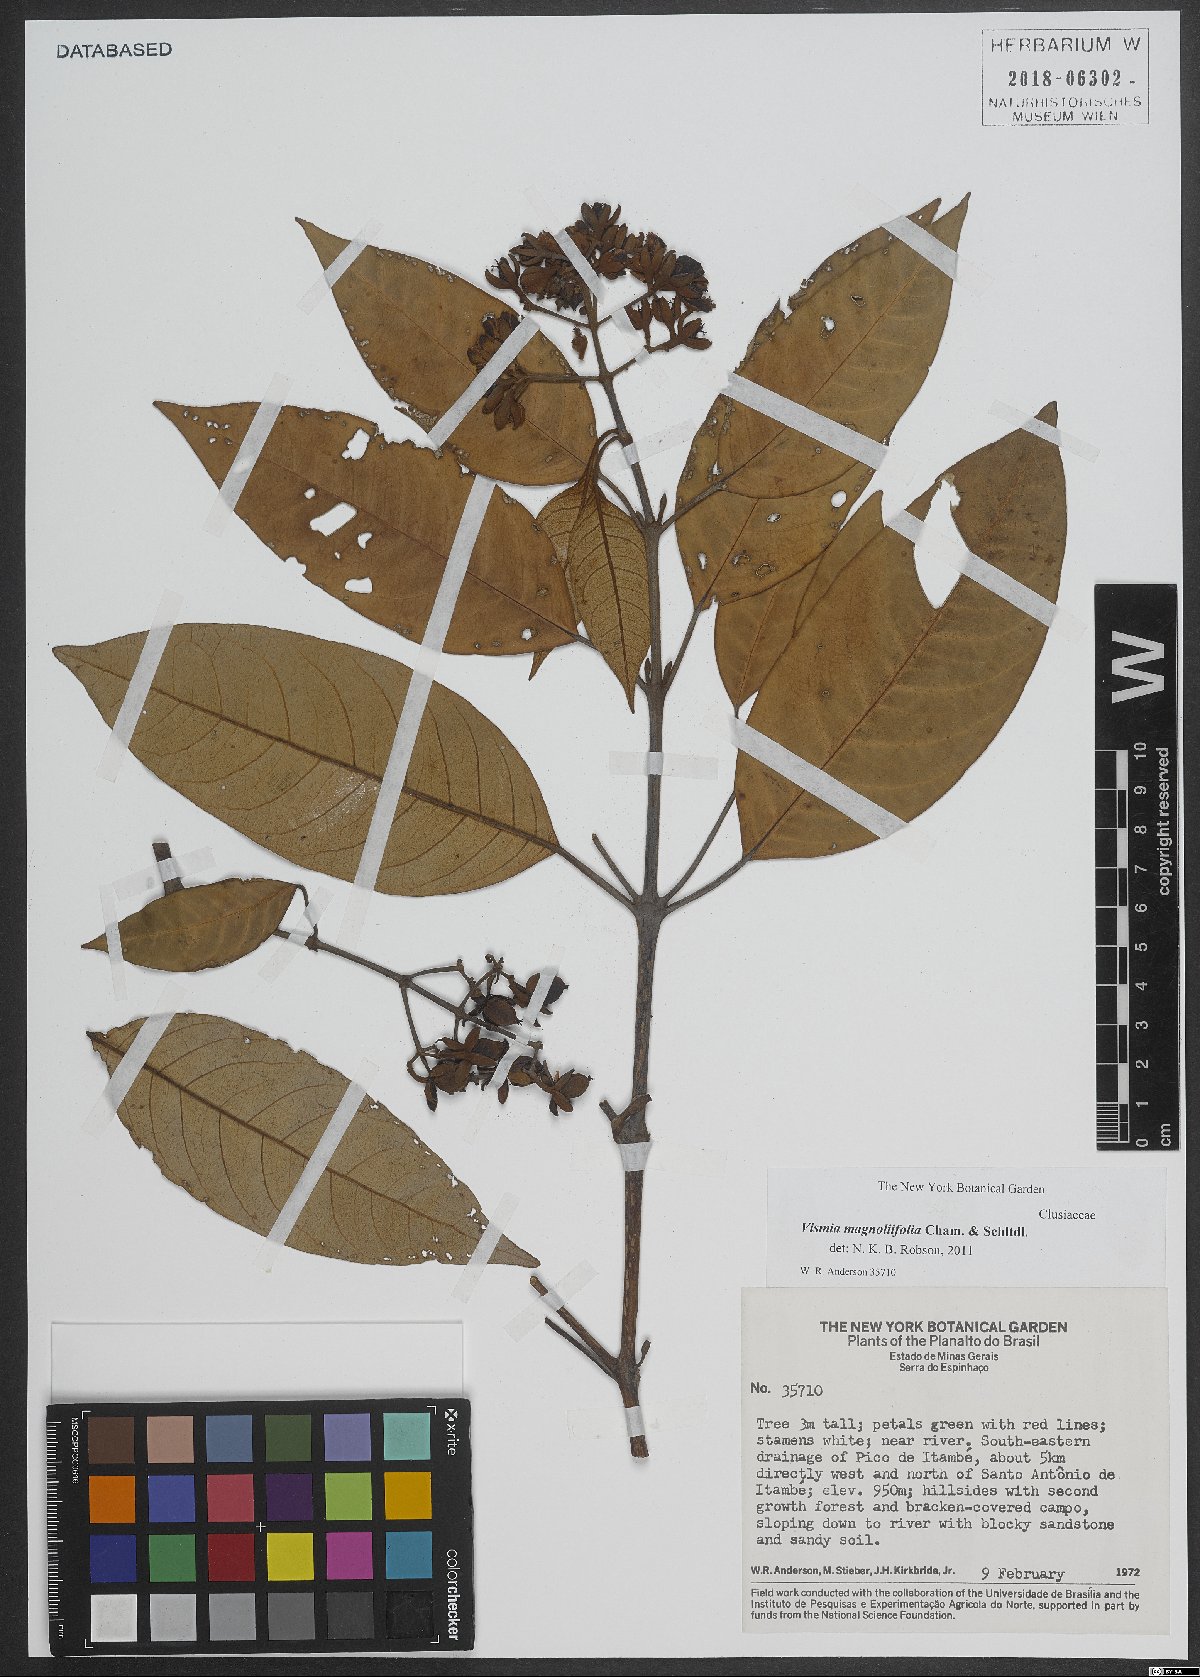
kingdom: Plantae
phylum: Tracheophyta
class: Magnoliopsida
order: Malpighiales
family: Hypericaceae
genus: Vismia
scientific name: Vismia magnoliifolia
